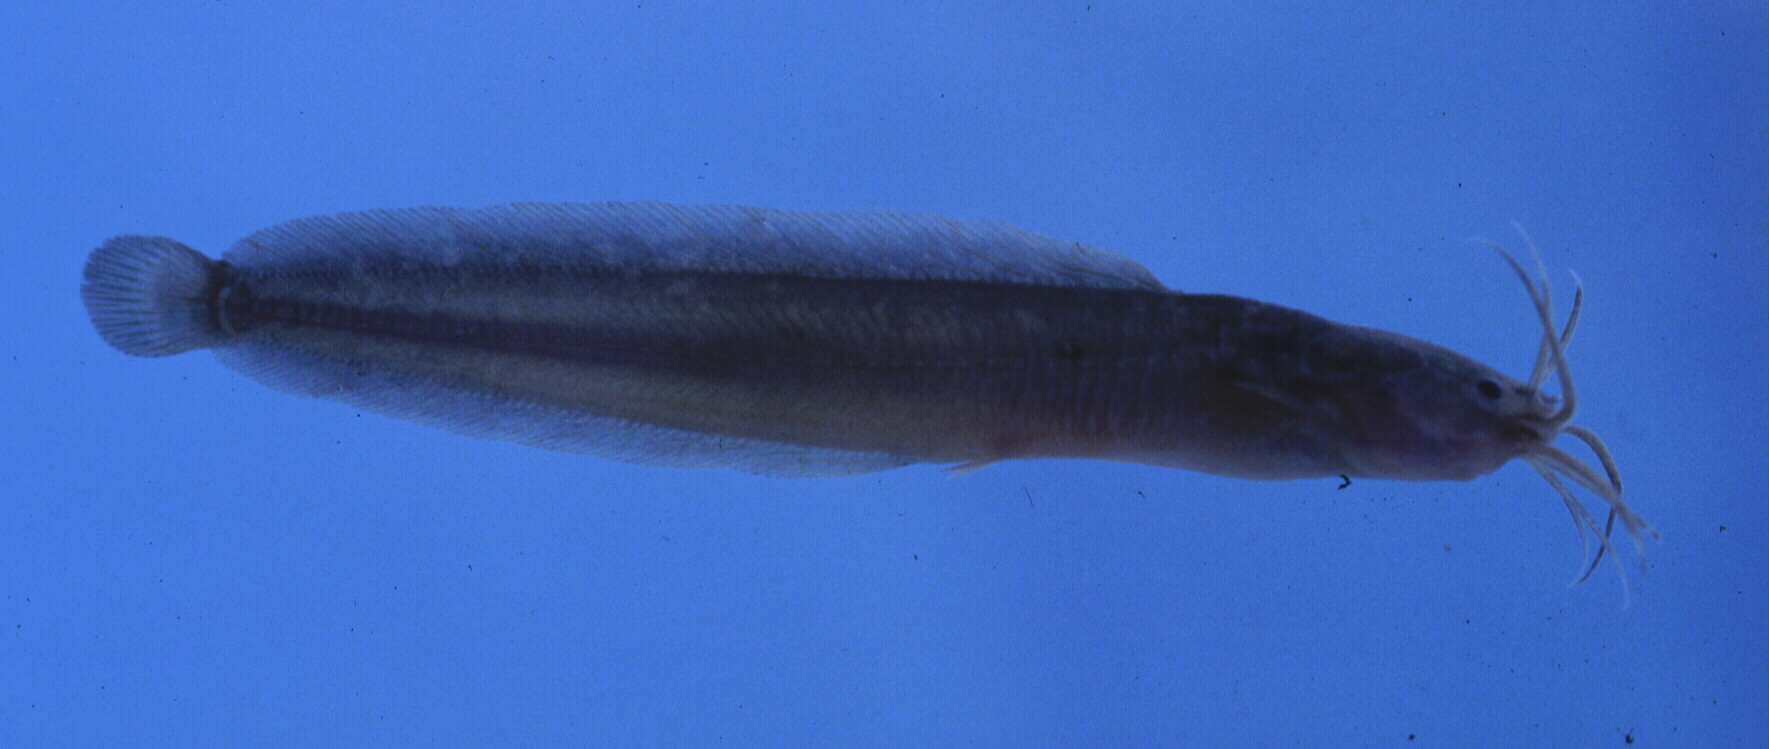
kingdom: Animalia
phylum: Chordata
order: Siluriformes
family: Clariidae
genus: Clarias
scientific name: Clarias theodorae
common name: Snake catfish
